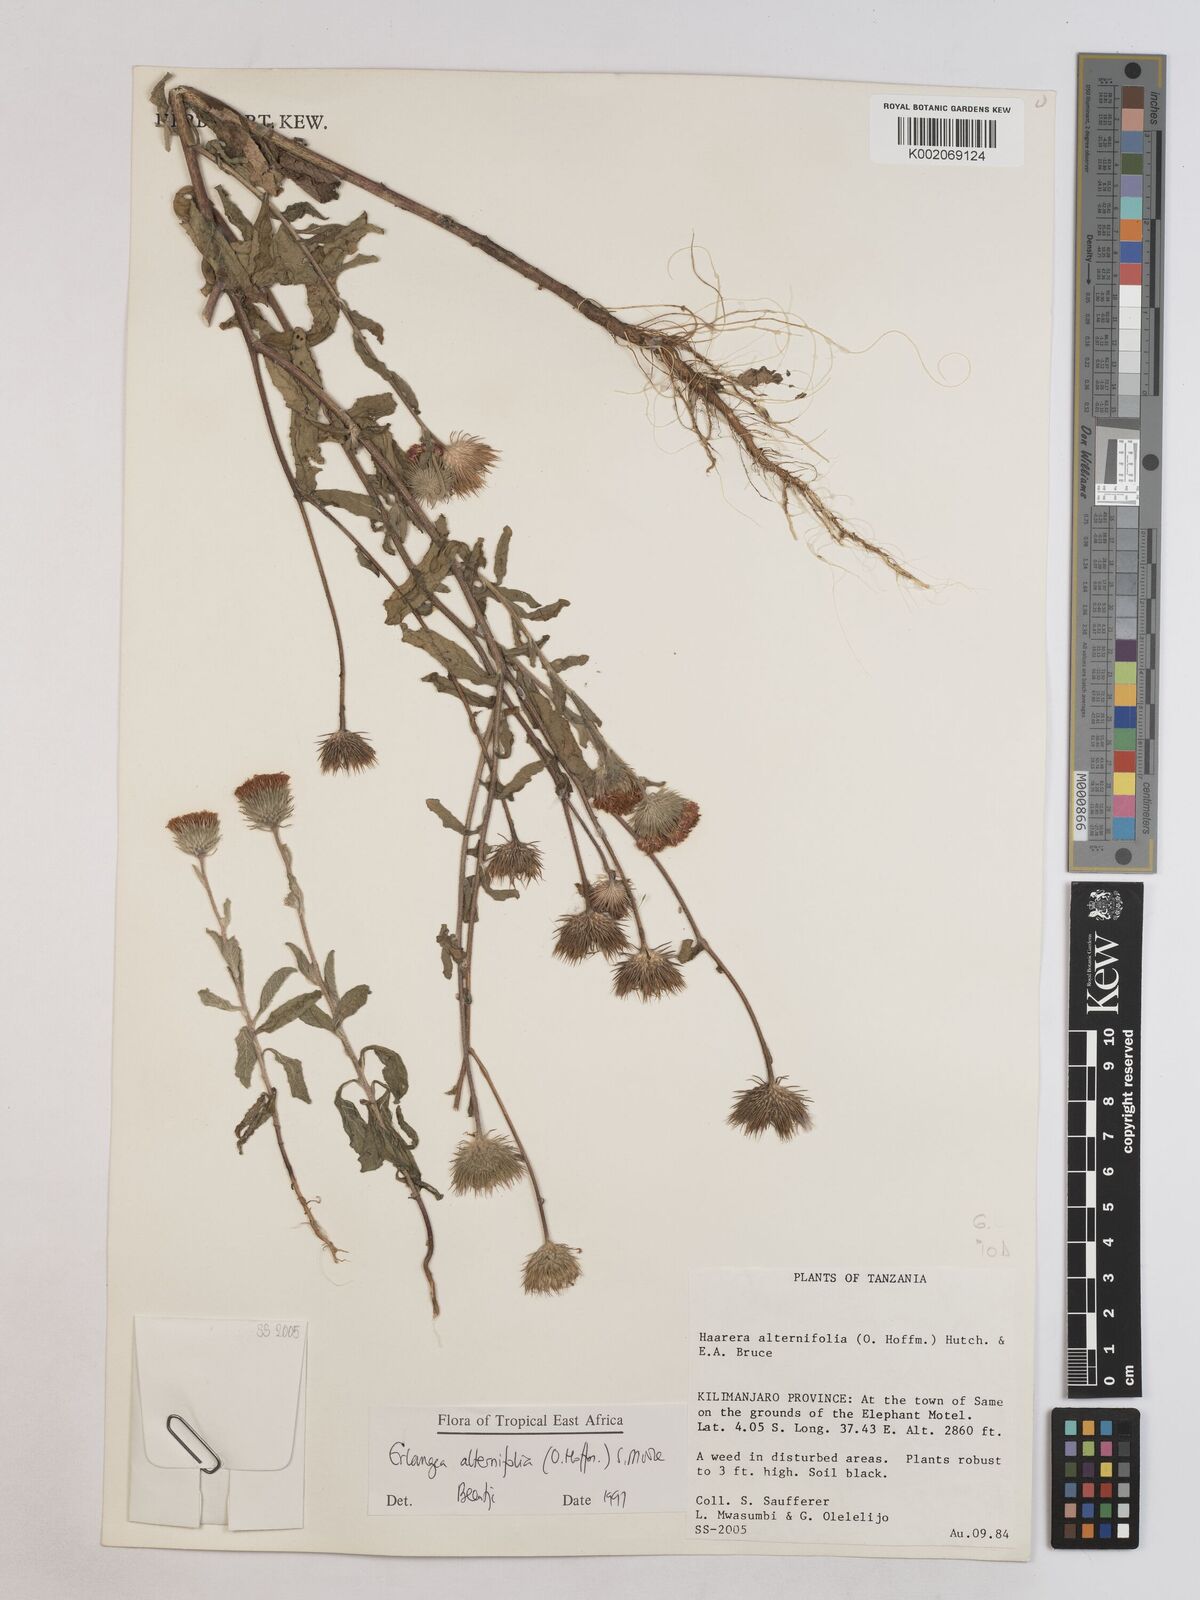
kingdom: Plantae
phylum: Tracheophyta
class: Magnoliopsida
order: Asterales
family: Asteraceae
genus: Erlangea
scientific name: Erlangea alternifolia
